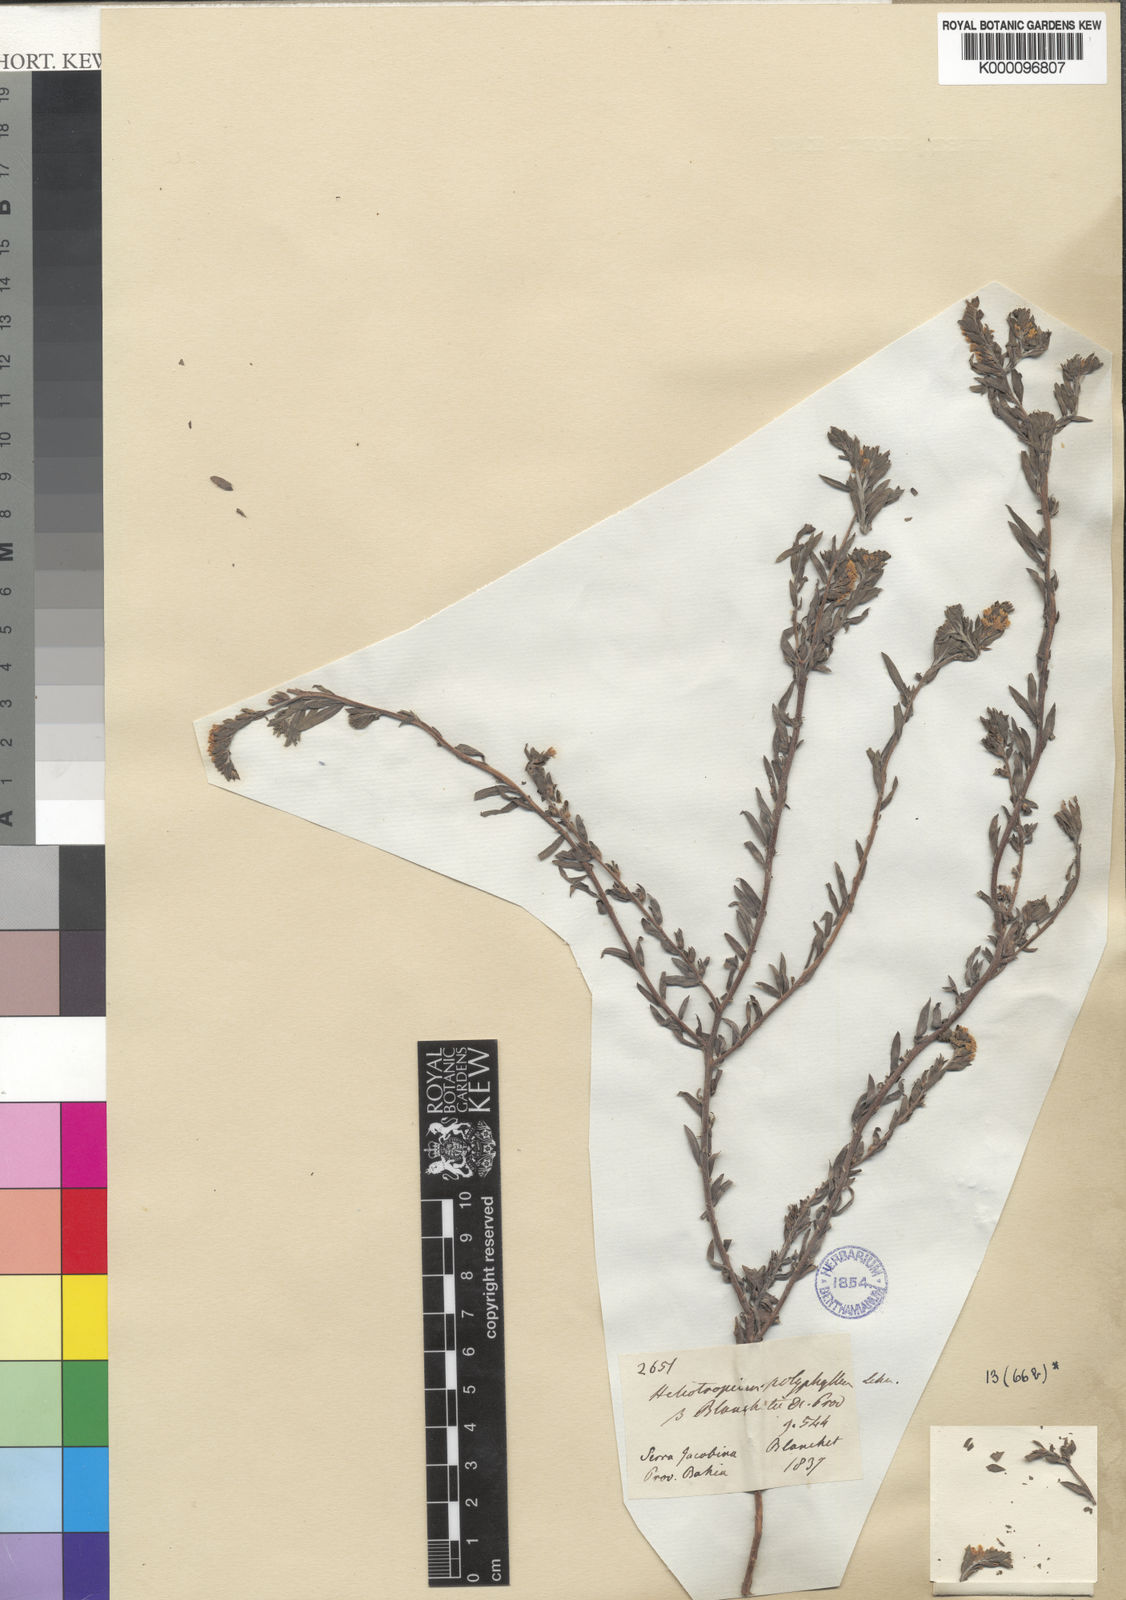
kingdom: Plantae
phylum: Tracheophyta
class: Magnoliopsida
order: Boraginales
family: Heliotropiaceae
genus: Euploca
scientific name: Euploca polyphylla
